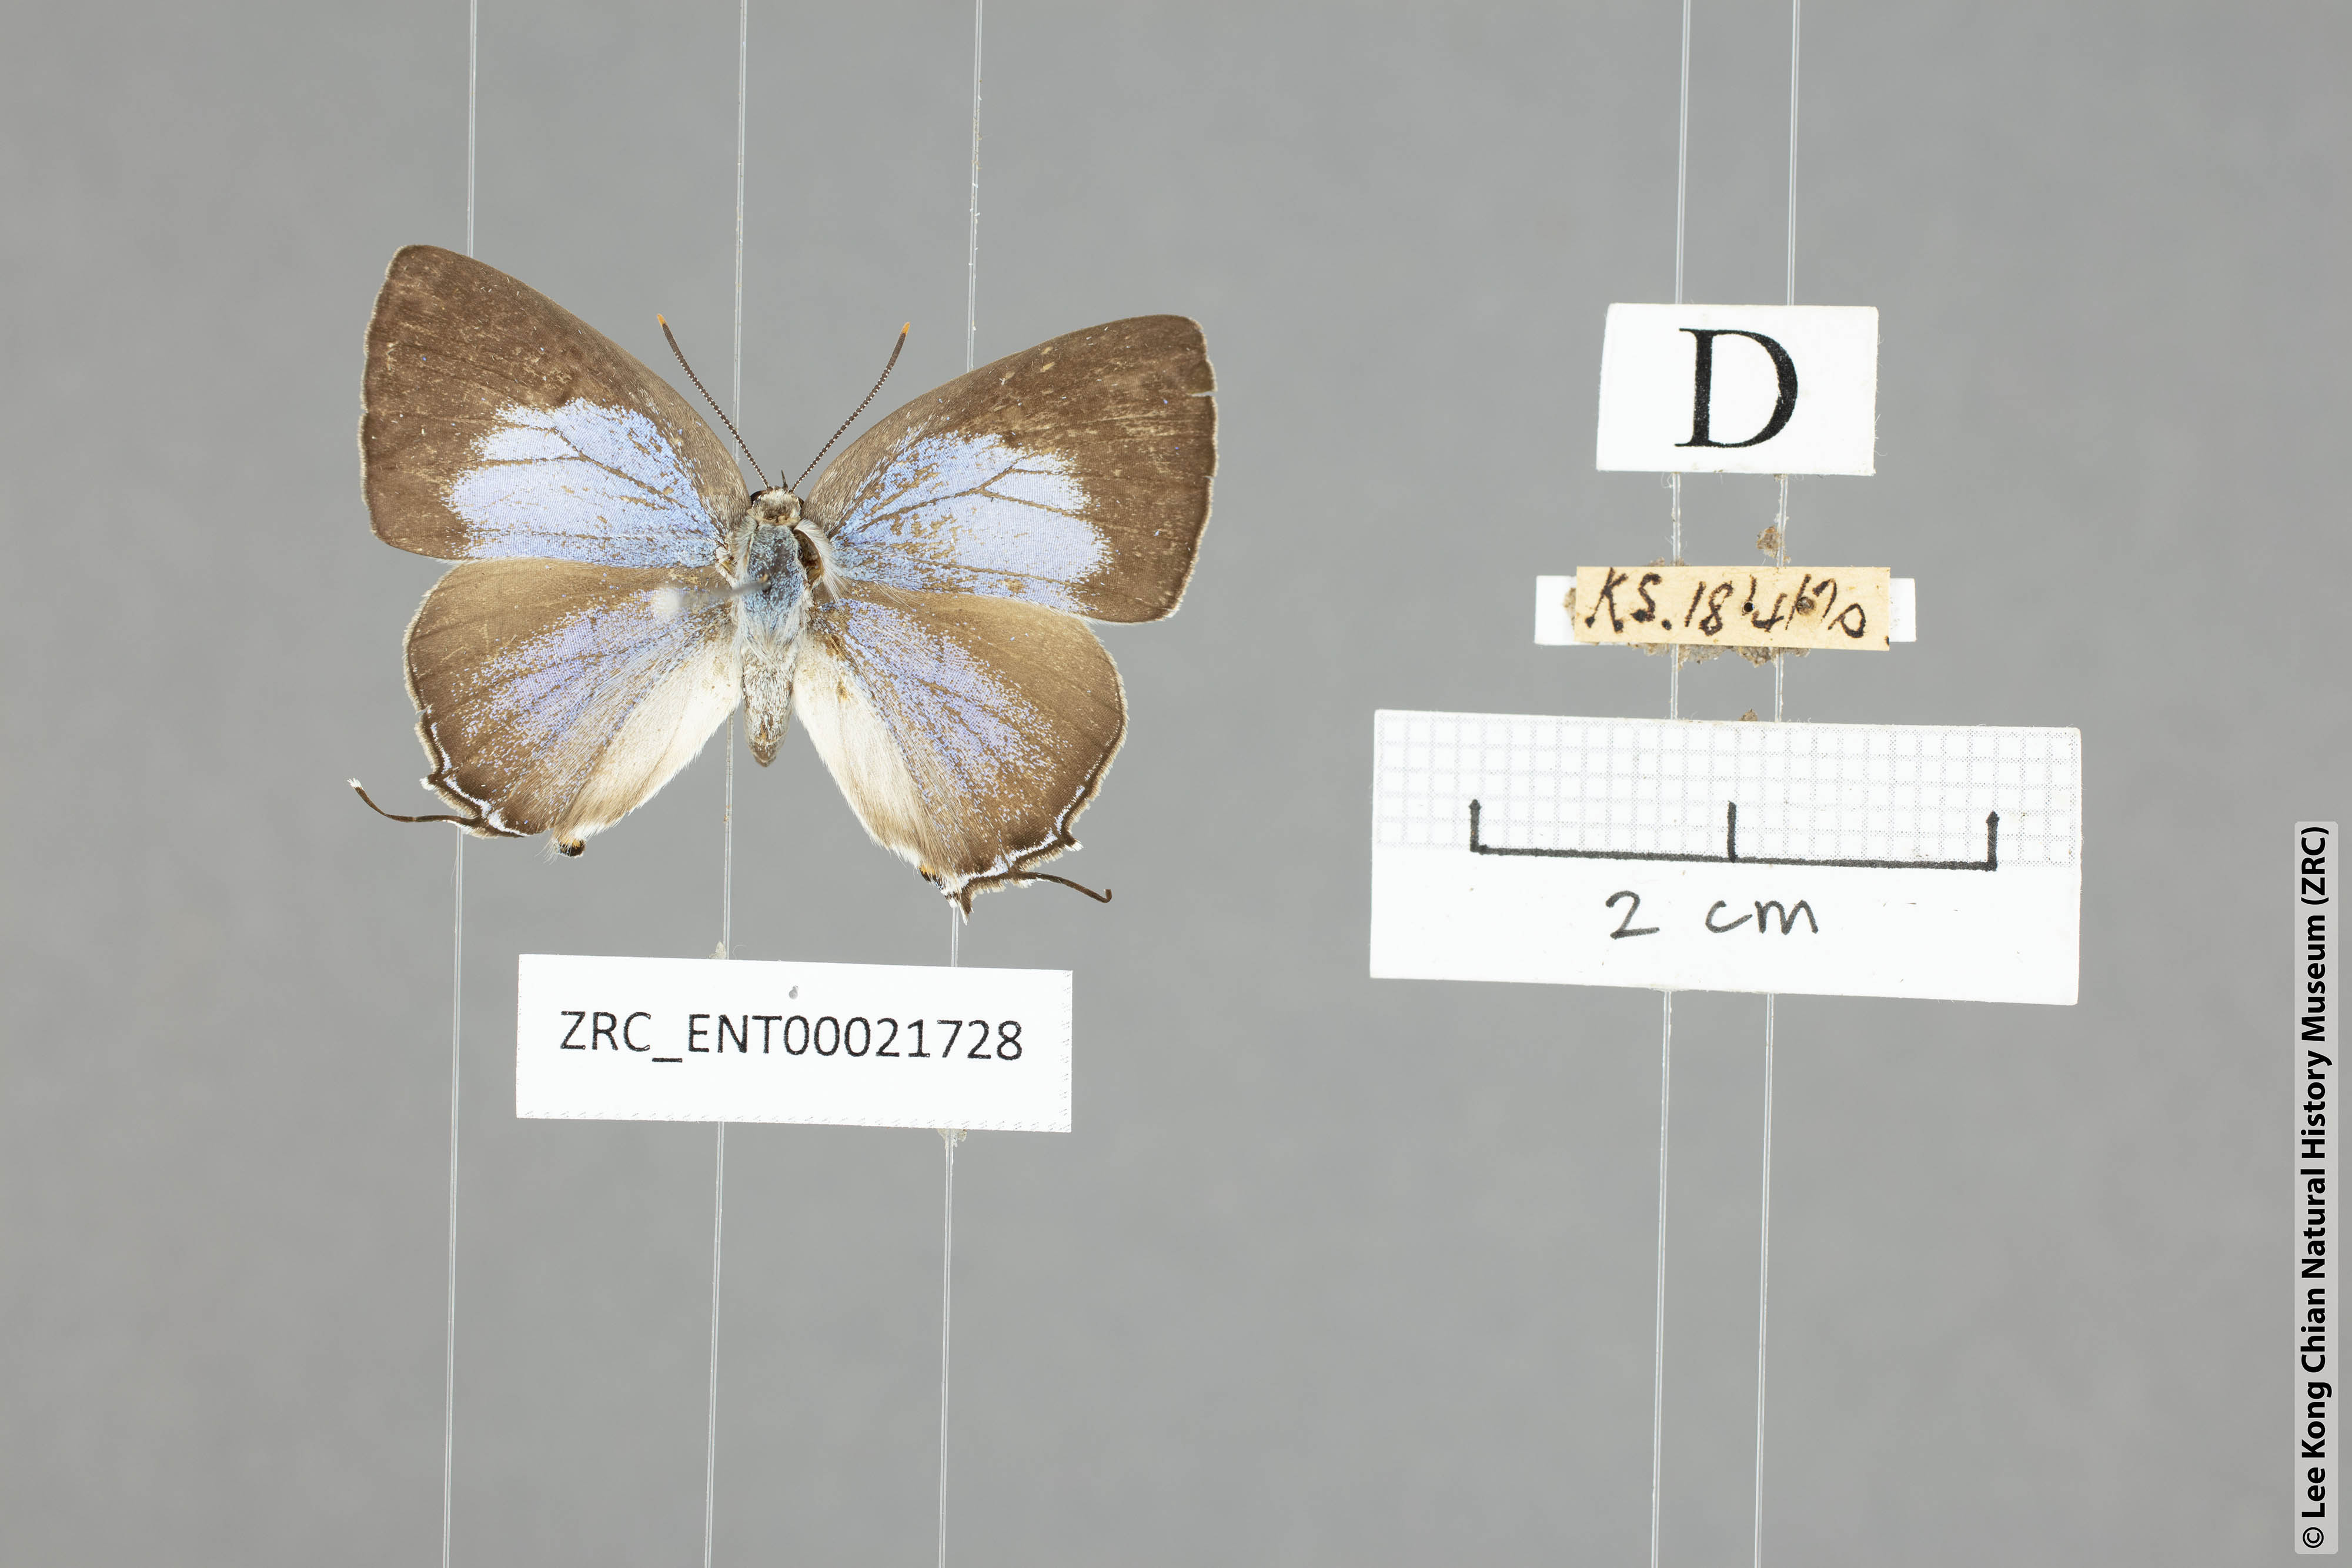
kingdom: Animalia
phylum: Arthropoda
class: Insecta
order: Lepidoptera
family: Lycaenidae
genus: Pratapa
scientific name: Pratapa deva
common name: White royal
